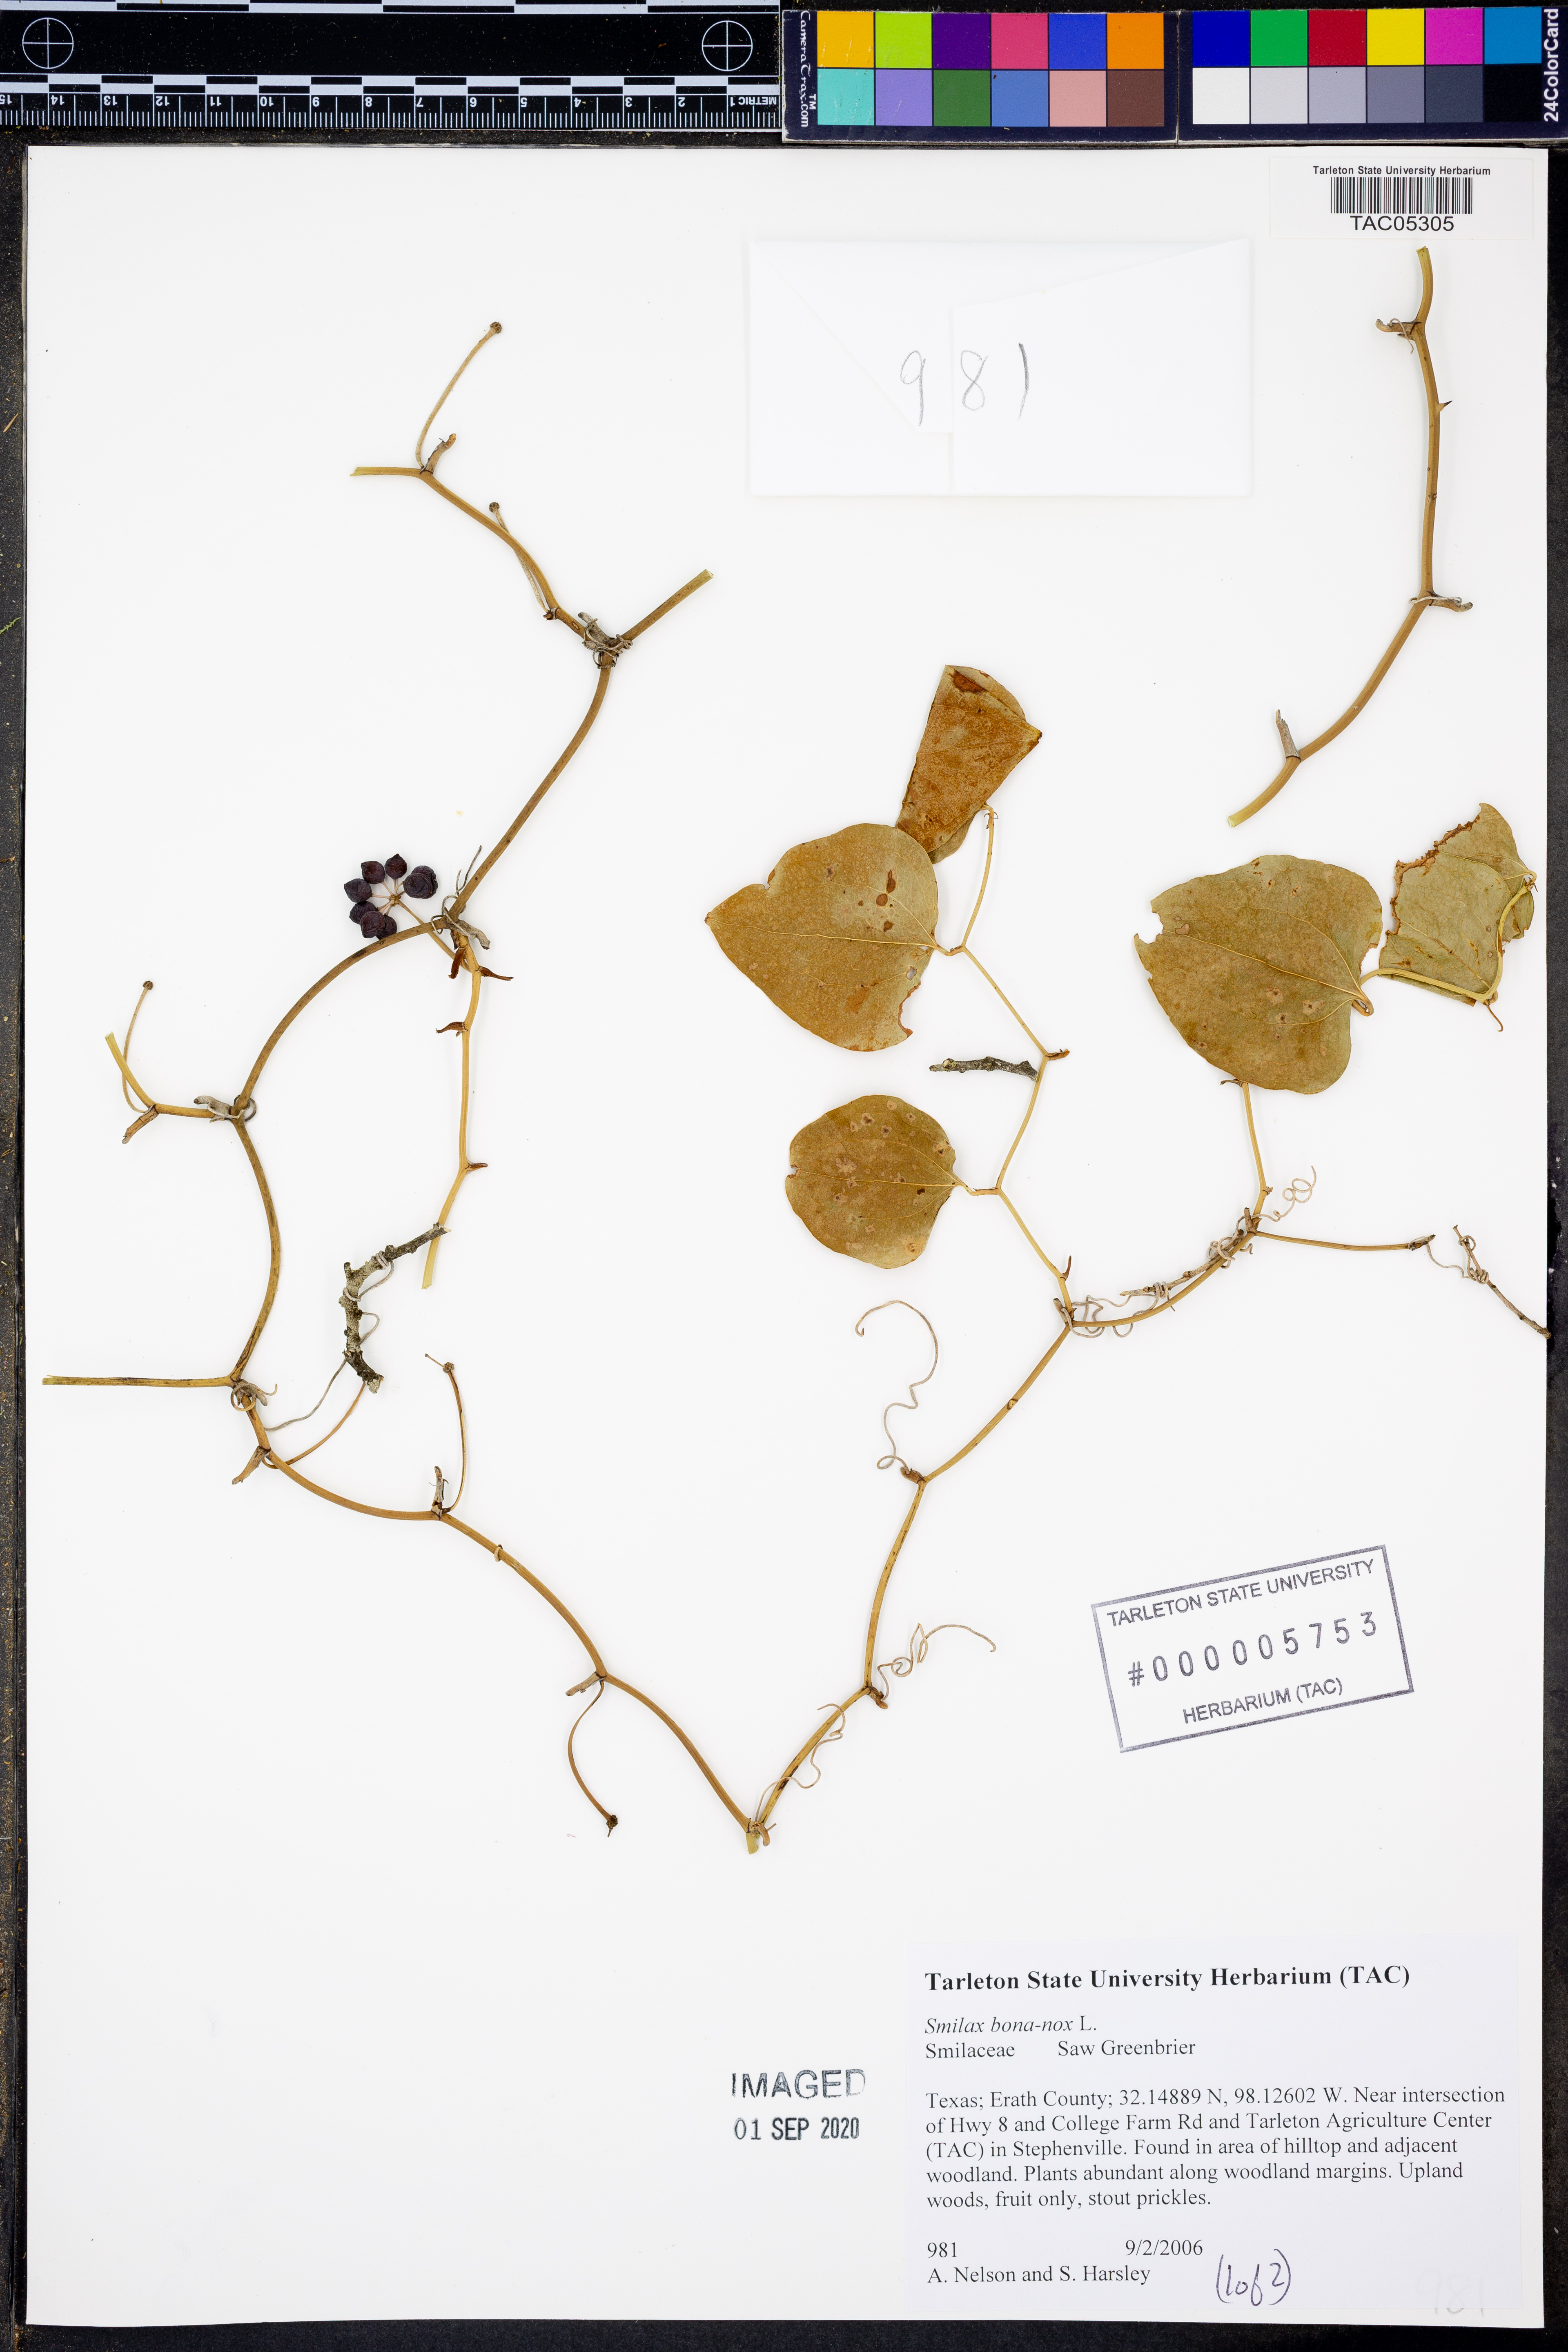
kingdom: Plantae
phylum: Tracheophyta
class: Liliopsida
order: Liliales
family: Smilacaceae
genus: Smilax
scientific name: Smilax bona-nox
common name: Catbrier
